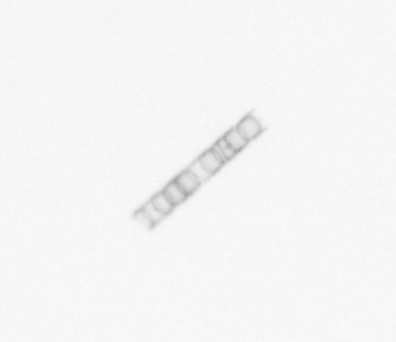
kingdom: Chromista
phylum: Ochrophyta
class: Bacillariophyceae
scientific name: Bacillariophyceae
